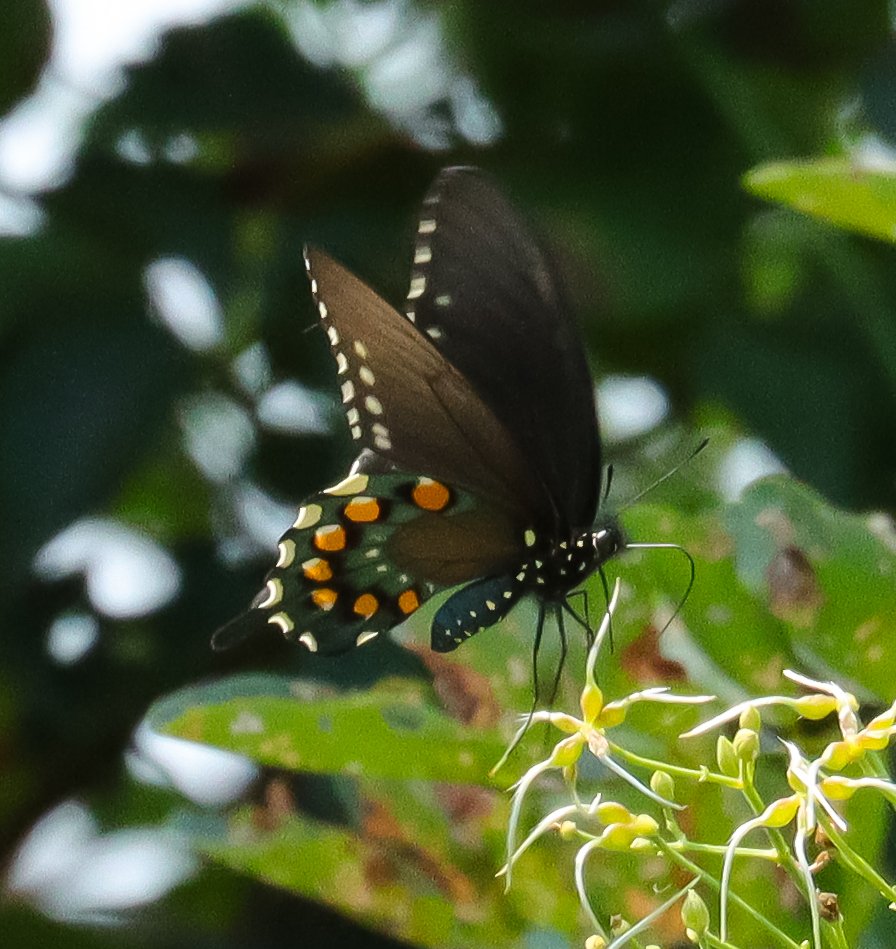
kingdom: Animalia
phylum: Arthropoda
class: Insecta
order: Lepidoptera
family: Papilionidae
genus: Battus
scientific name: Battus philenor
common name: Pipevine Swallowtail
